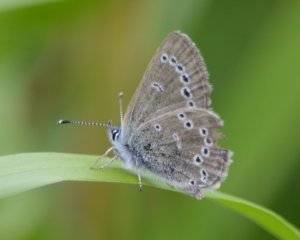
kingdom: Animalia
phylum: Arthropoda
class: Insecta
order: Lepidoptera
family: Lycaenidae
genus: Glaucopsyche
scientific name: Glaucopsyche lygdamus
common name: Silvery Blue
